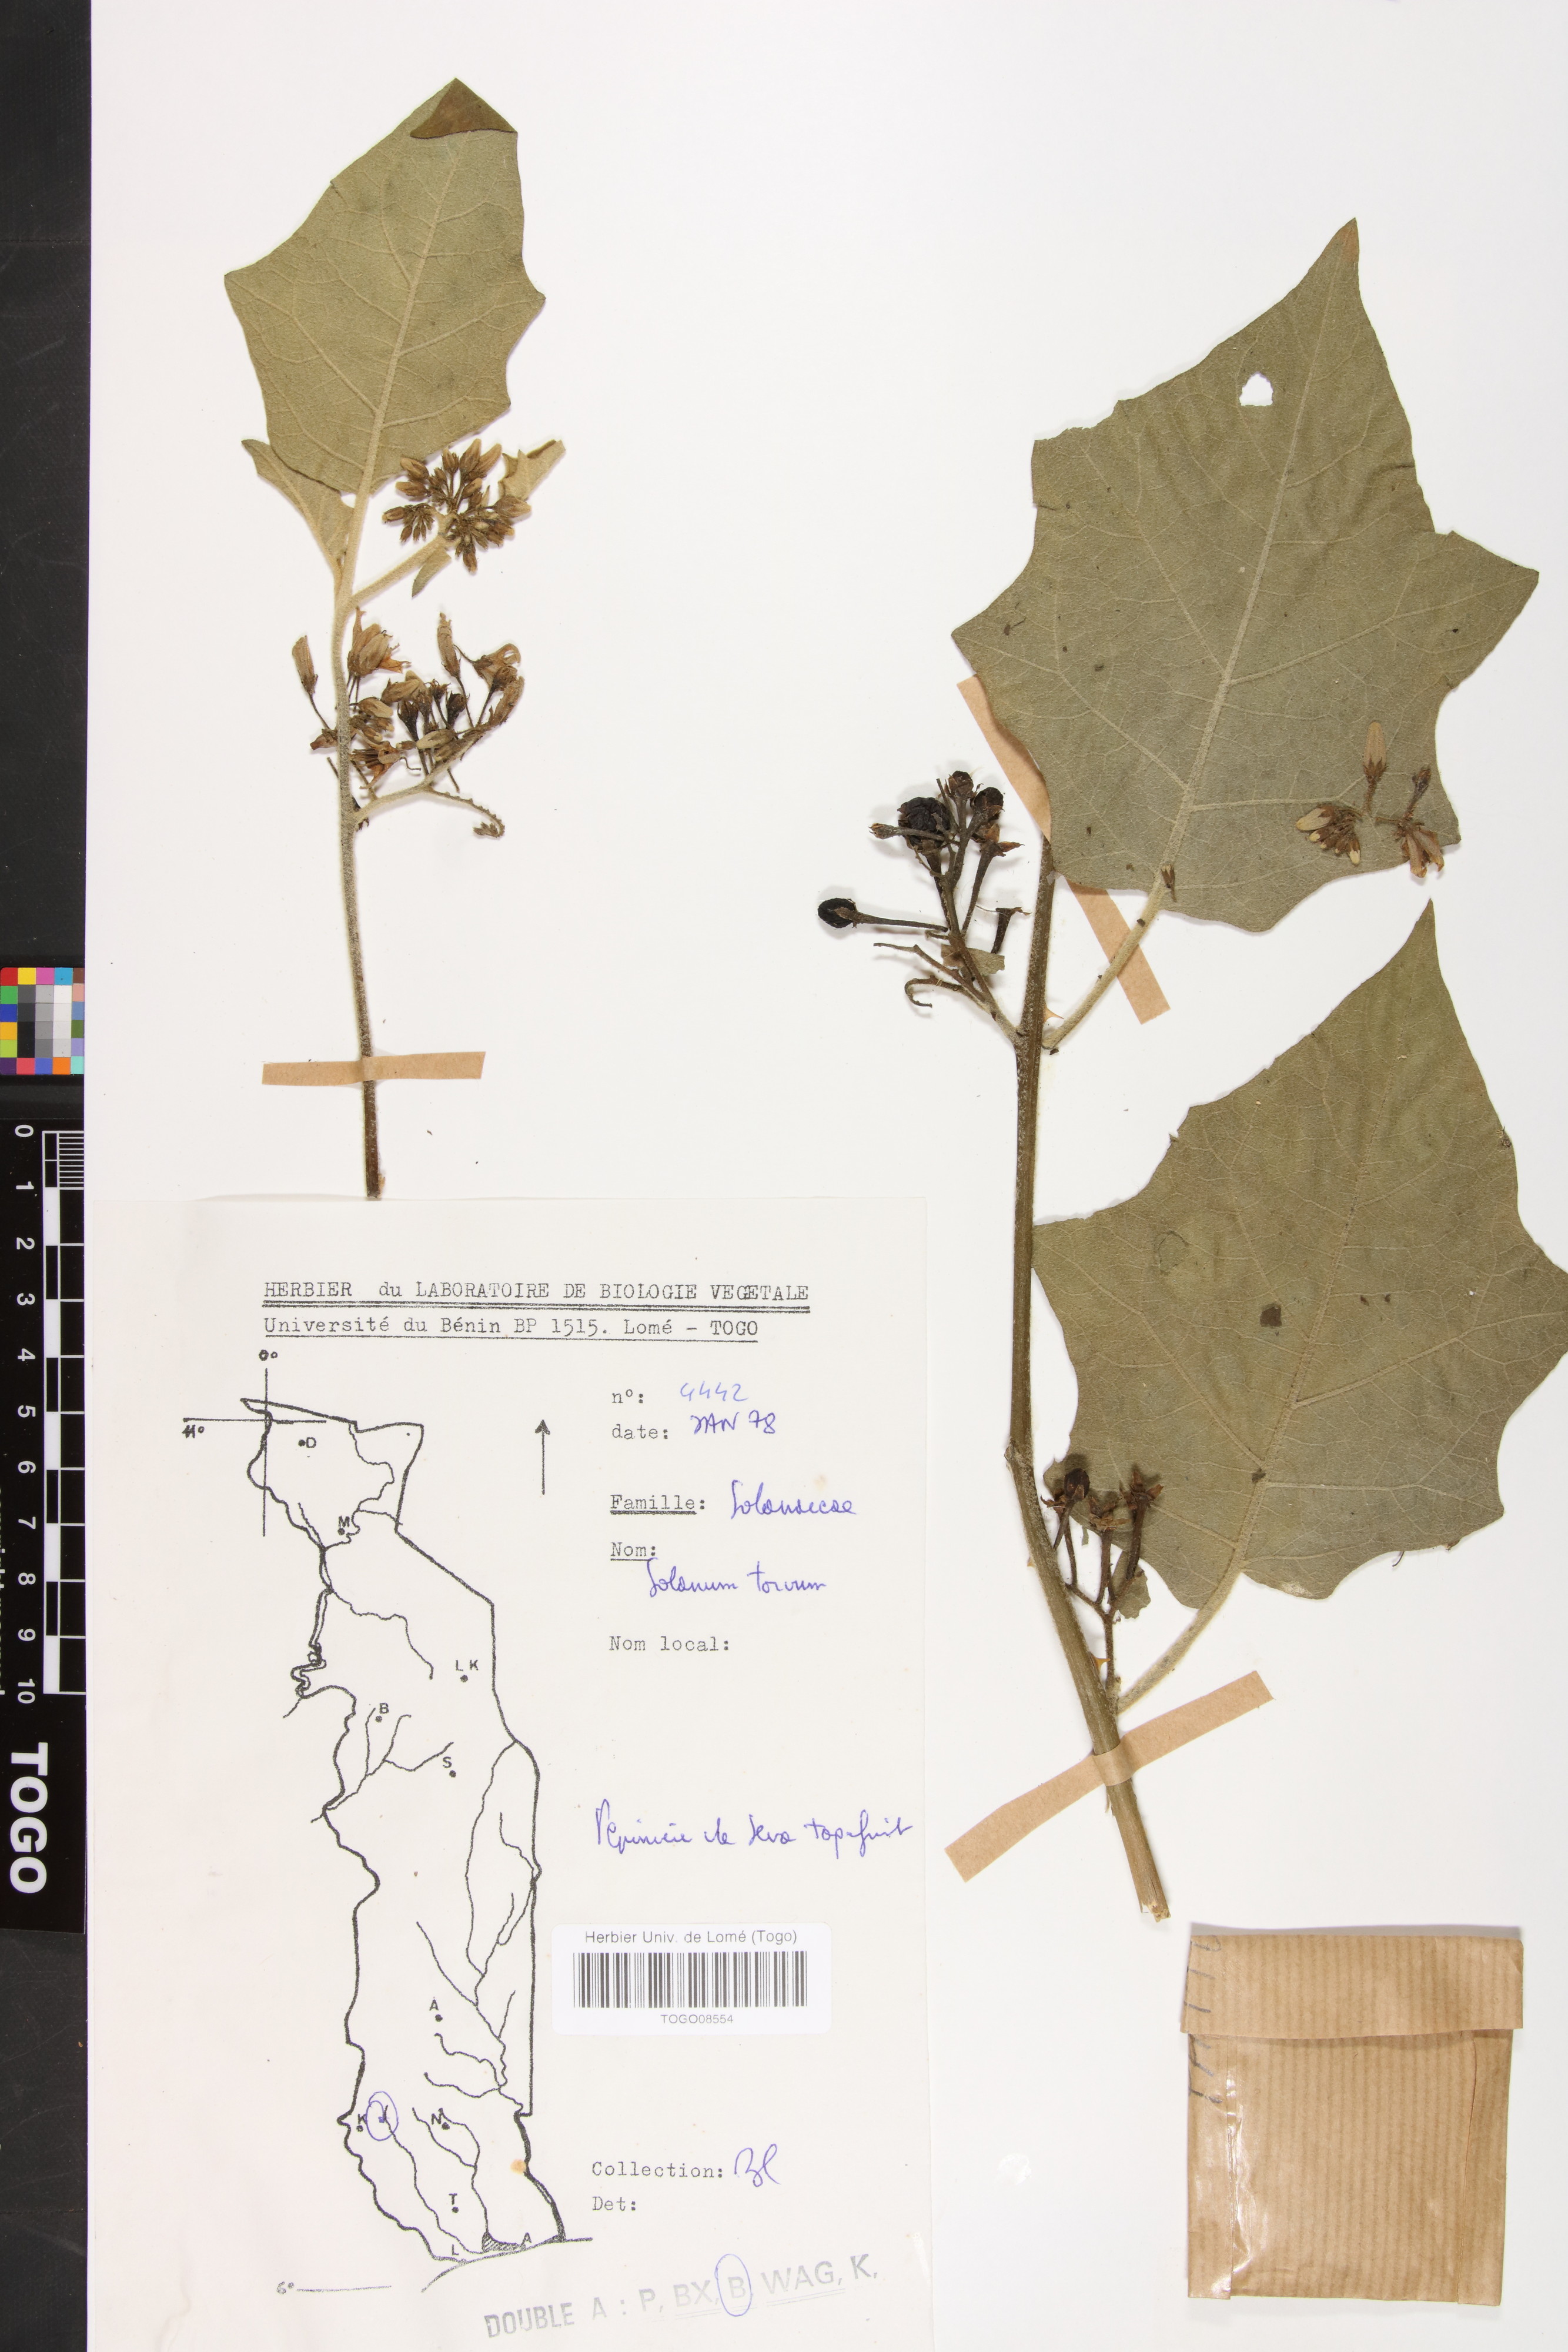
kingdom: Plantae
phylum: Tracheophyta
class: Magnoliopsida
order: Solanales
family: Solanaceae
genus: Solanum
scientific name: Solanum torvum
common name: Turkey berry
